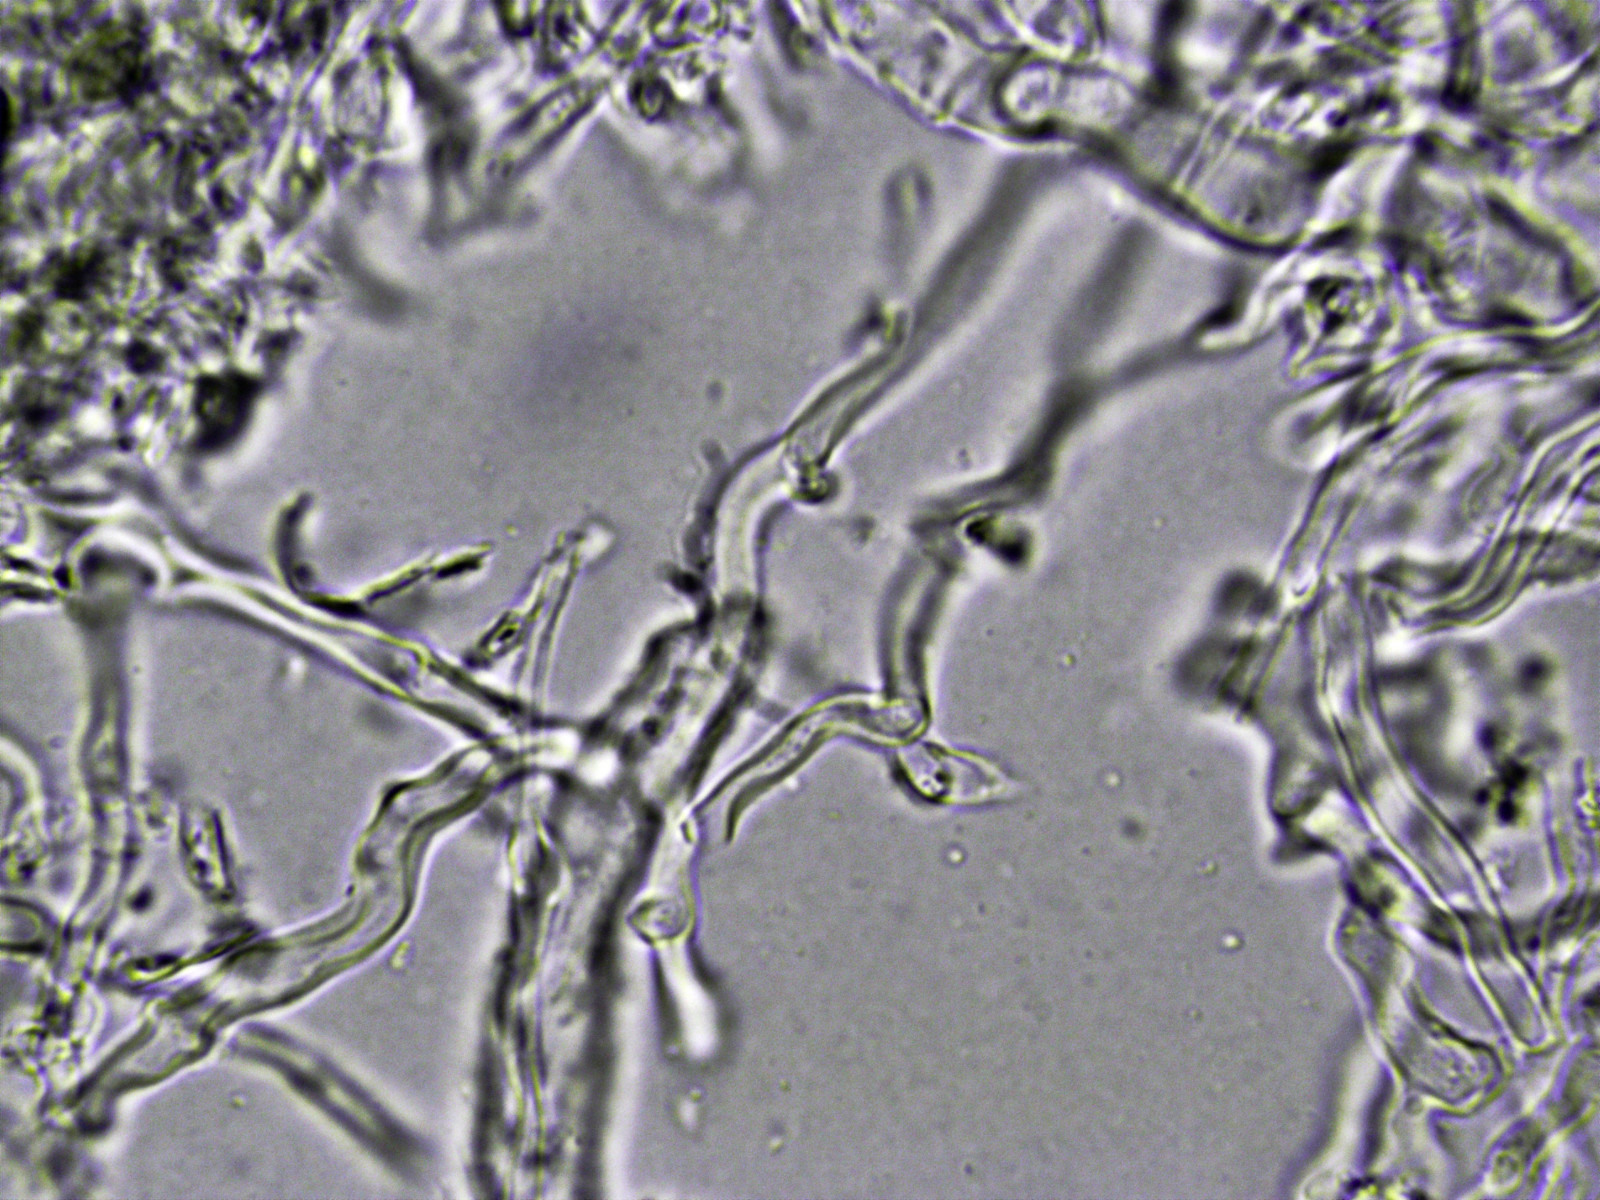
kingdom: Fungi
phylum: Basidiomycota
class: Agaricomycetes
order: Agaricales
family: Marasmiaceae
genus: Calyptella
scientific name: Calyptella capula
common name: hvidlig nældehue
